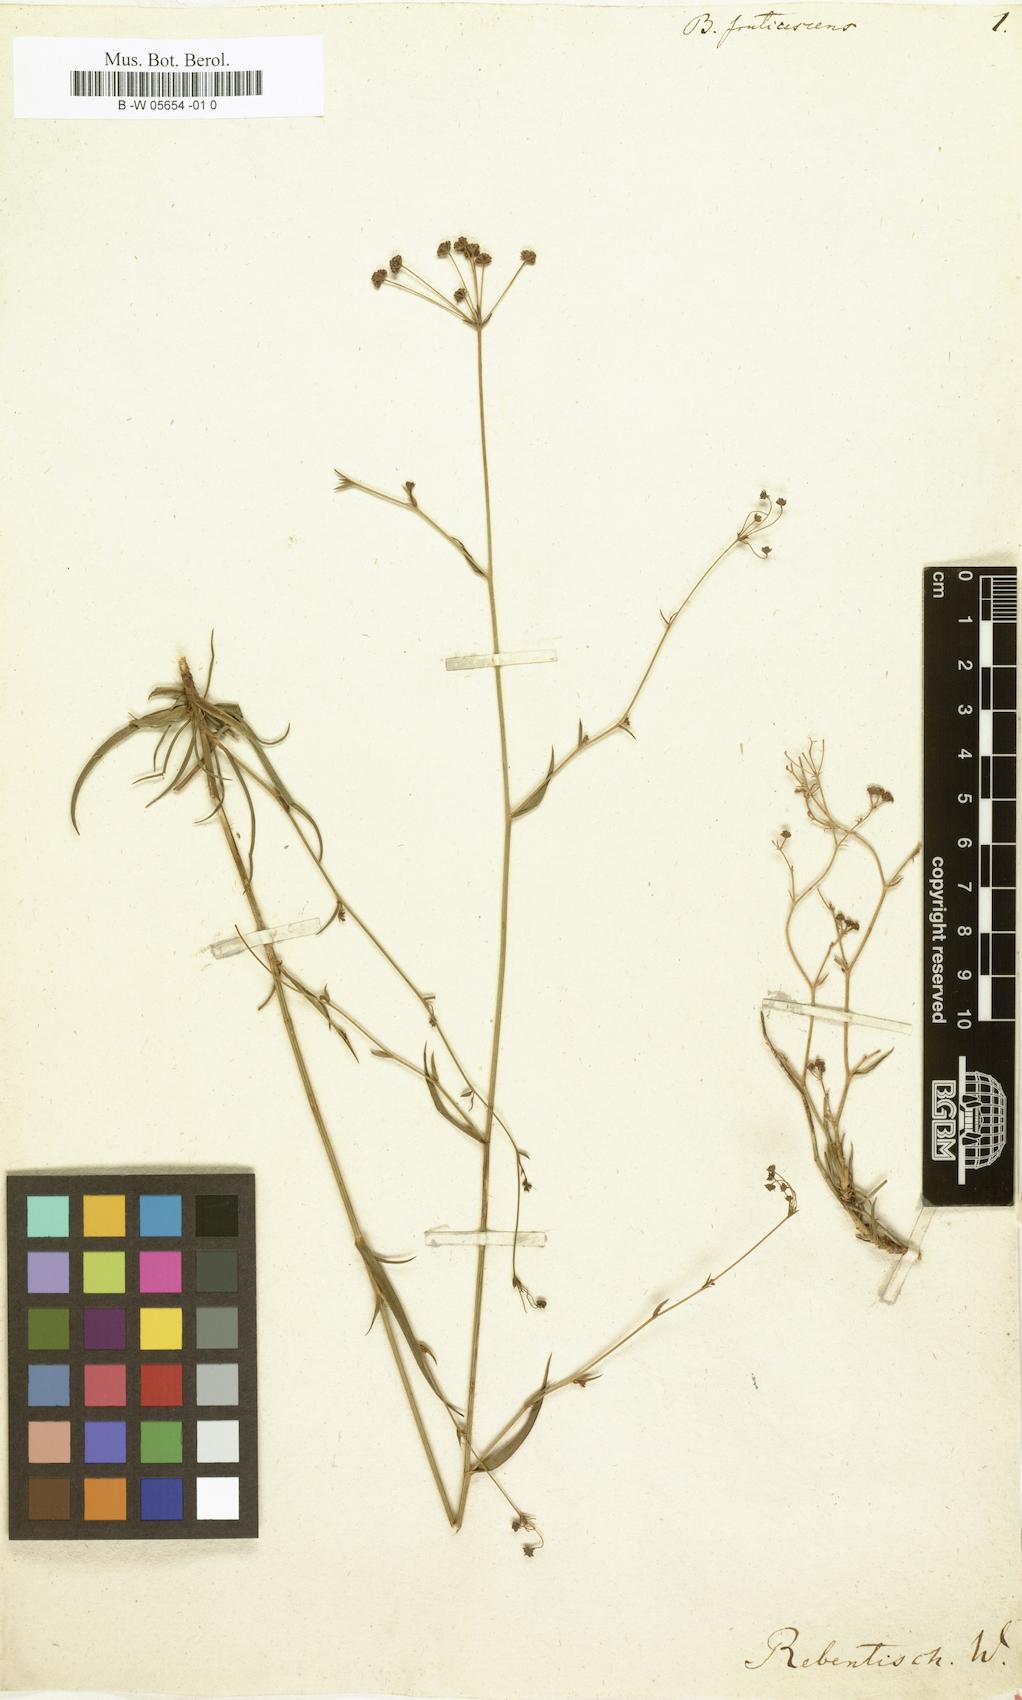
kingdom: Plantae
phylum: Tracheophyta
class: Magnoliopsida
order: Apiales
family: Apiaceae
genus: Bupleurum
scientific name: Bupleurum fruticescens
